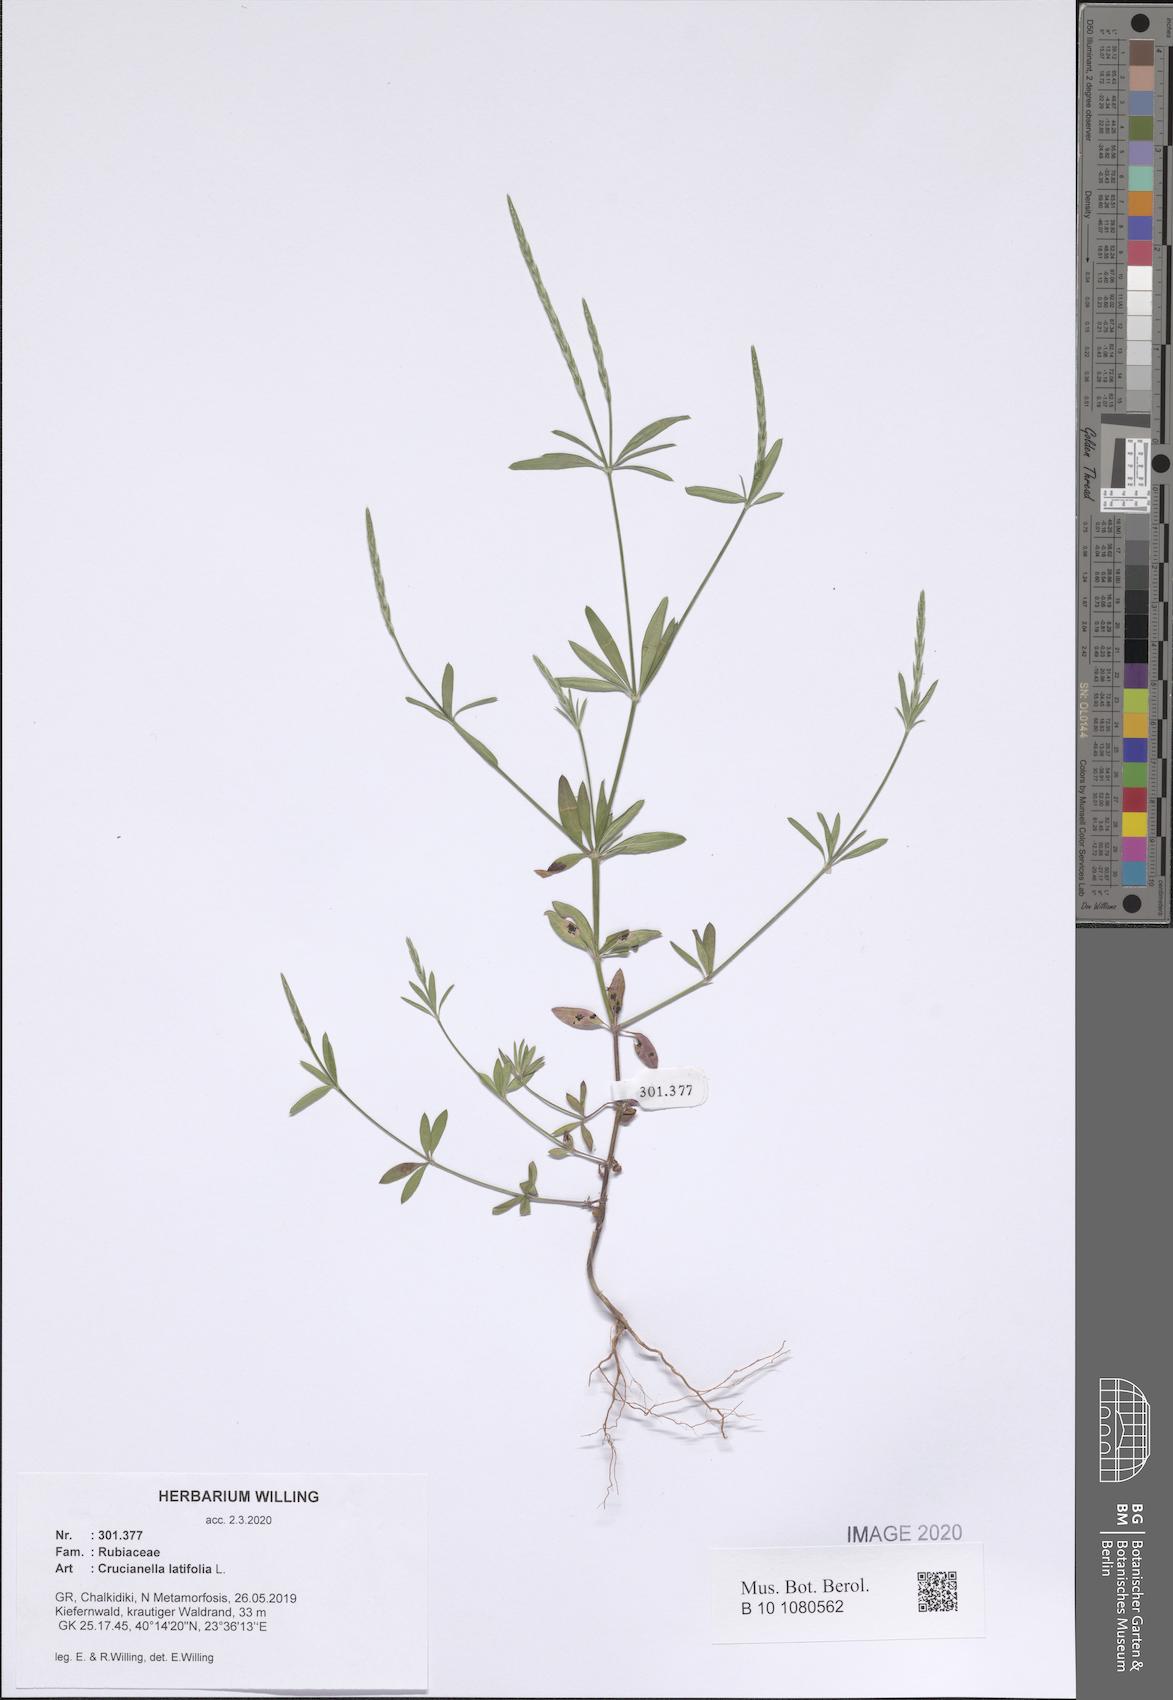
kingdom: Plantae
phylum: Tracheophyta
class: Magnoliopsida
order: Gentianales
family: Rubiaceae
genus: Crucianella
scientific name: Crucianella latifolia
